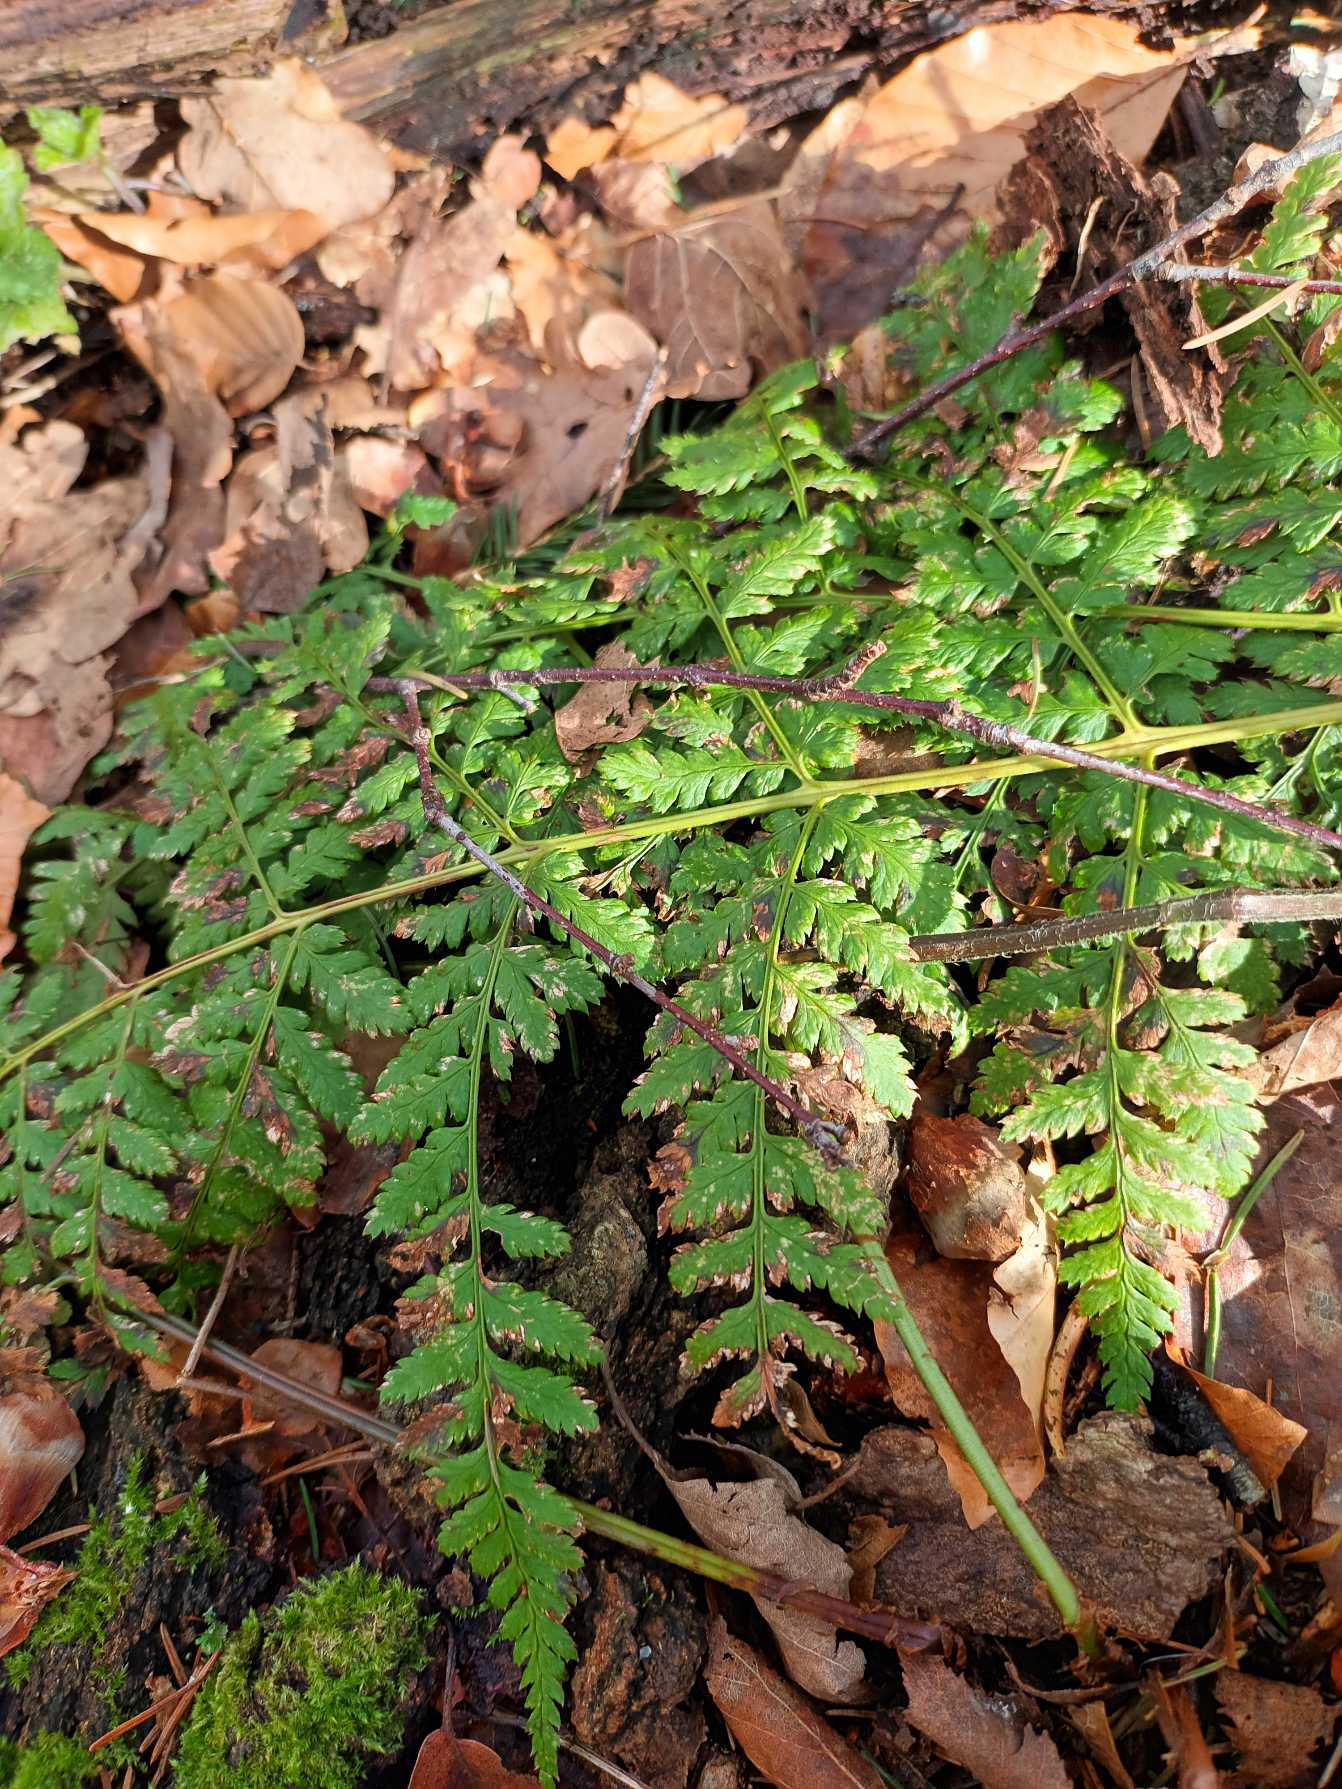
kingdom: Plantae
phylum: Tracheophyta
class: Polypodiopsida
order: Polypodiales
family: Dryopteridaceae
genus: Dryopteris
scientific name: Dryopteris dilatata
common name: Bredbladet mangeløv
